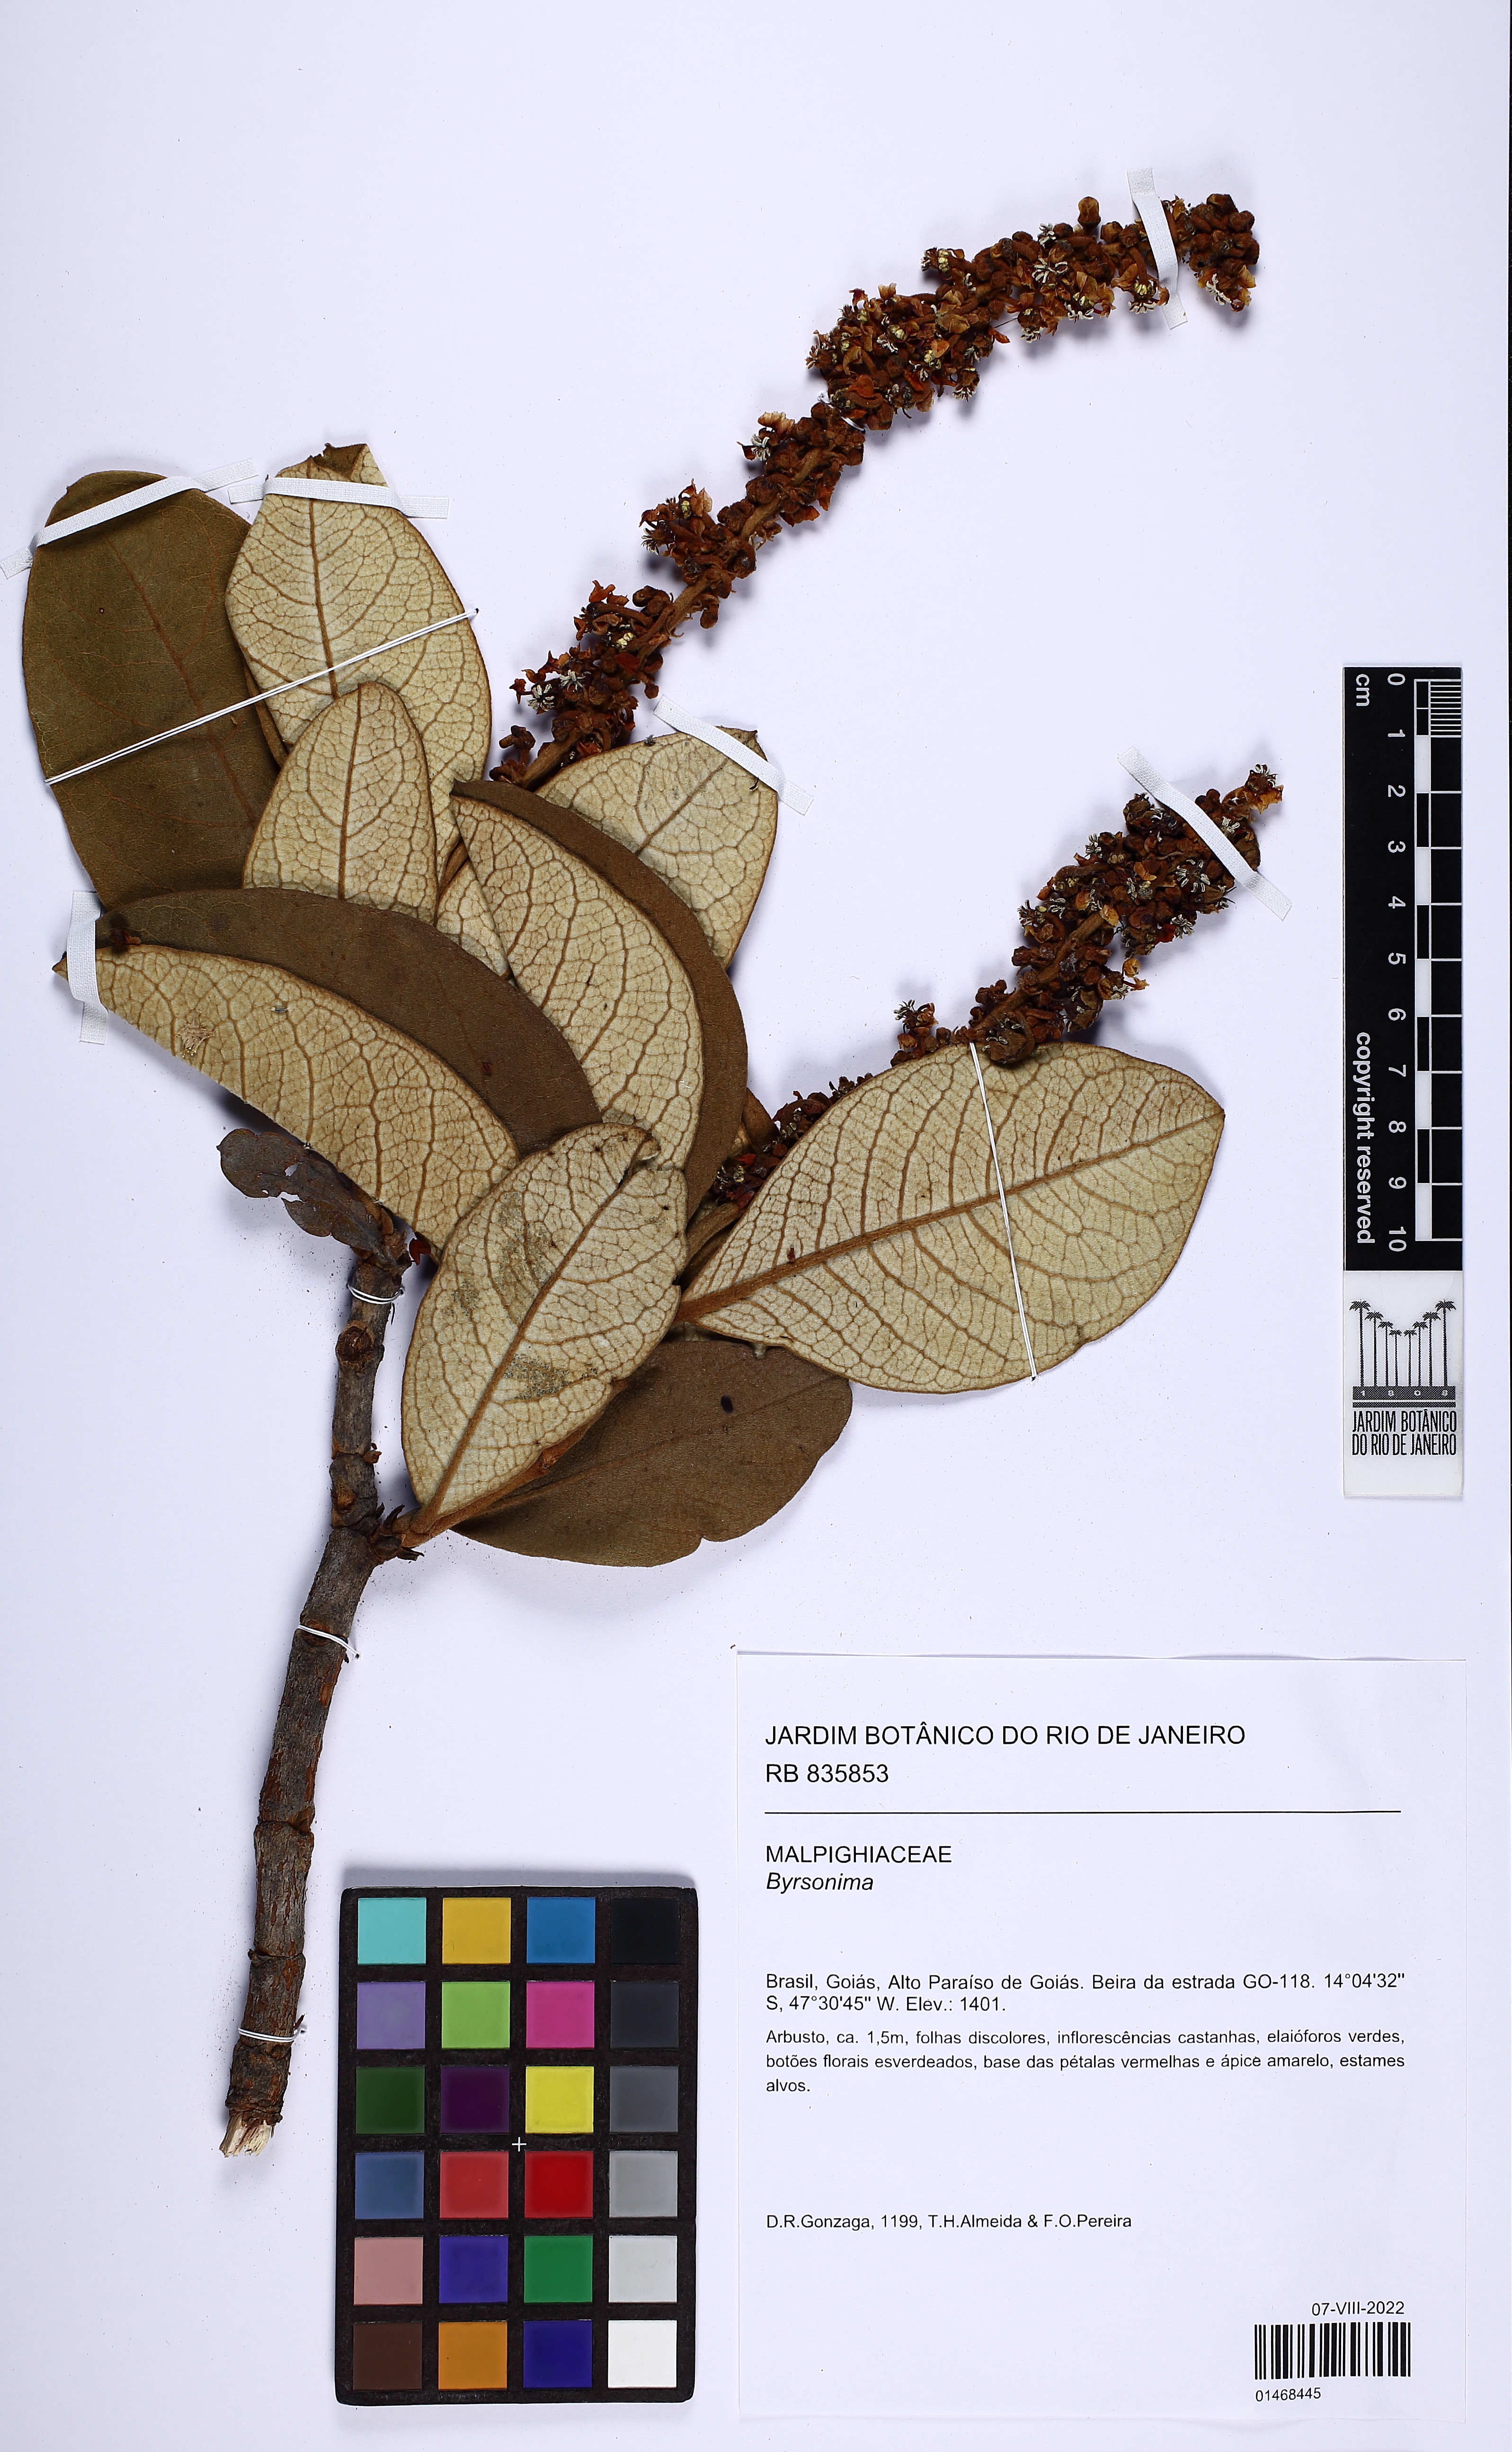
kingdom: Plantae
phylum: Tracheophyta
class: Magnoliopsida
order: Malpighiales
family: Malpighiaceae
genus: Byrsonima
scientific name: Byrsonima
